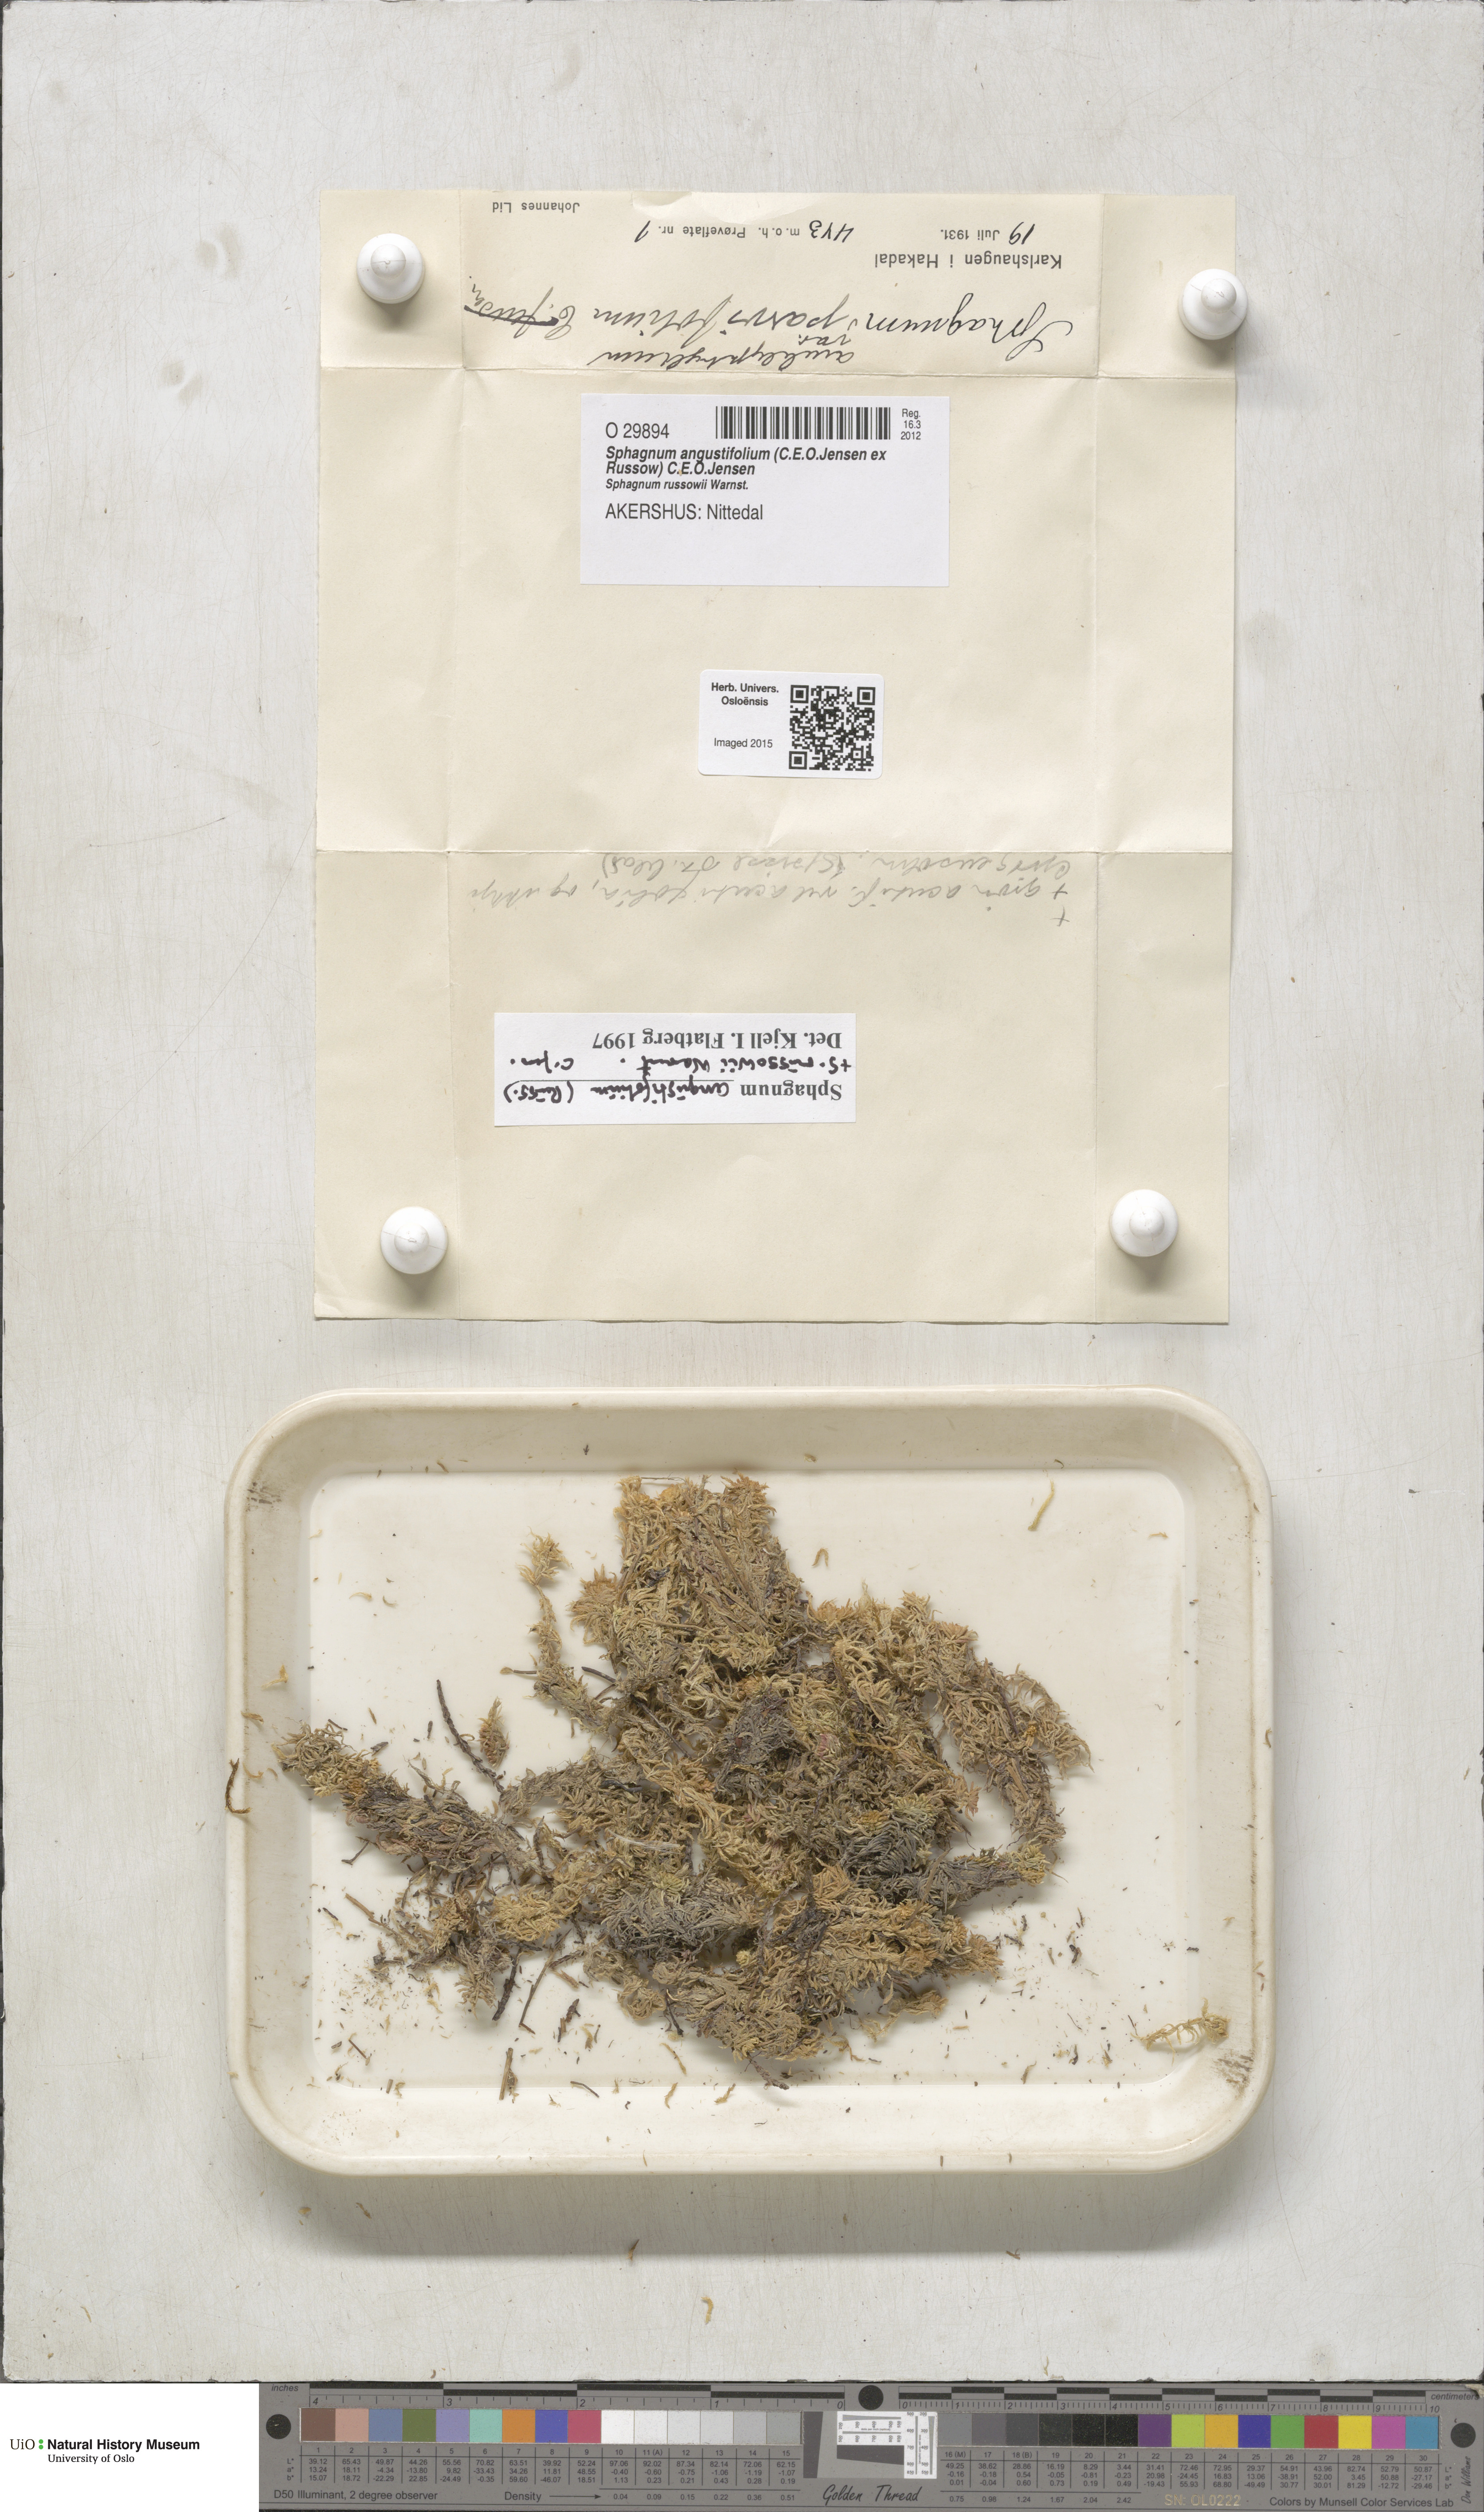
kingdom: Plantae
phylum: Bryophyta
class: Sphagnopsida
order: Sphagnales
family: Sphagnaceae
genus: Sphagnum
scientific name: Sphagnum angustifolium
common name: Narrow-leaved peat moss
